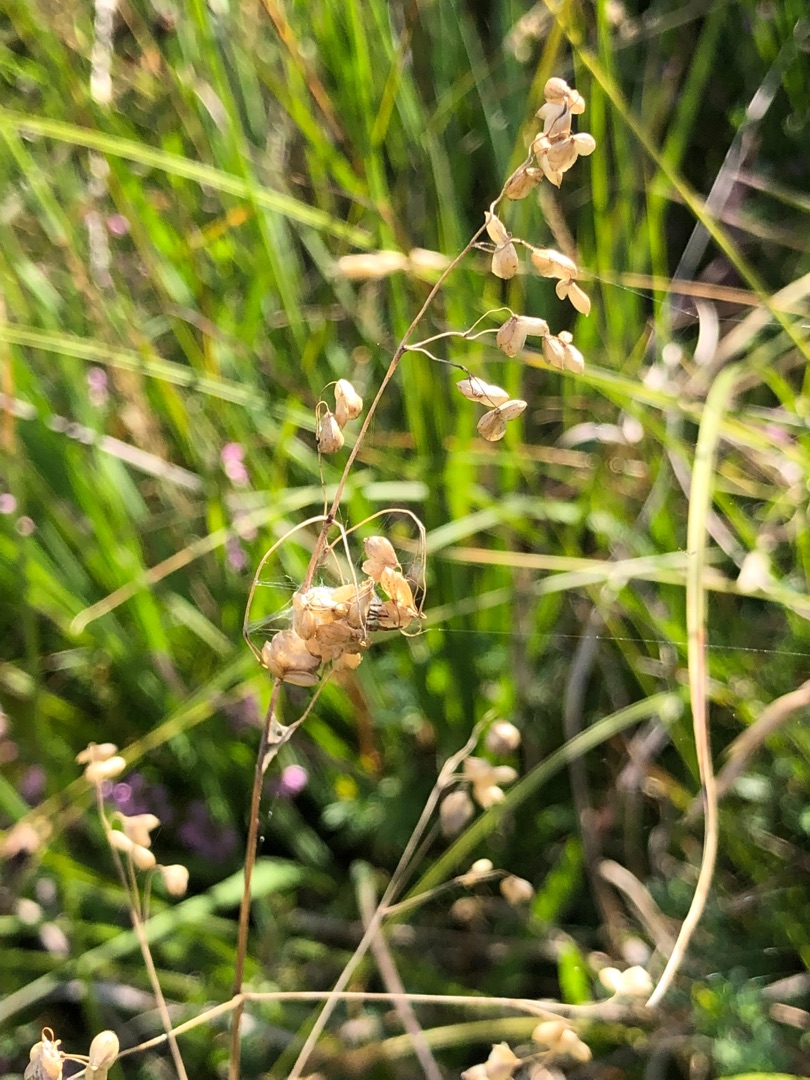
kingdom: Plantae
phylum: Tracheophyta
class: Liliopsida
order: Poales
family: Poaceae
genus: Briza
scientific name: Briza media
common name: Hjertegræs
